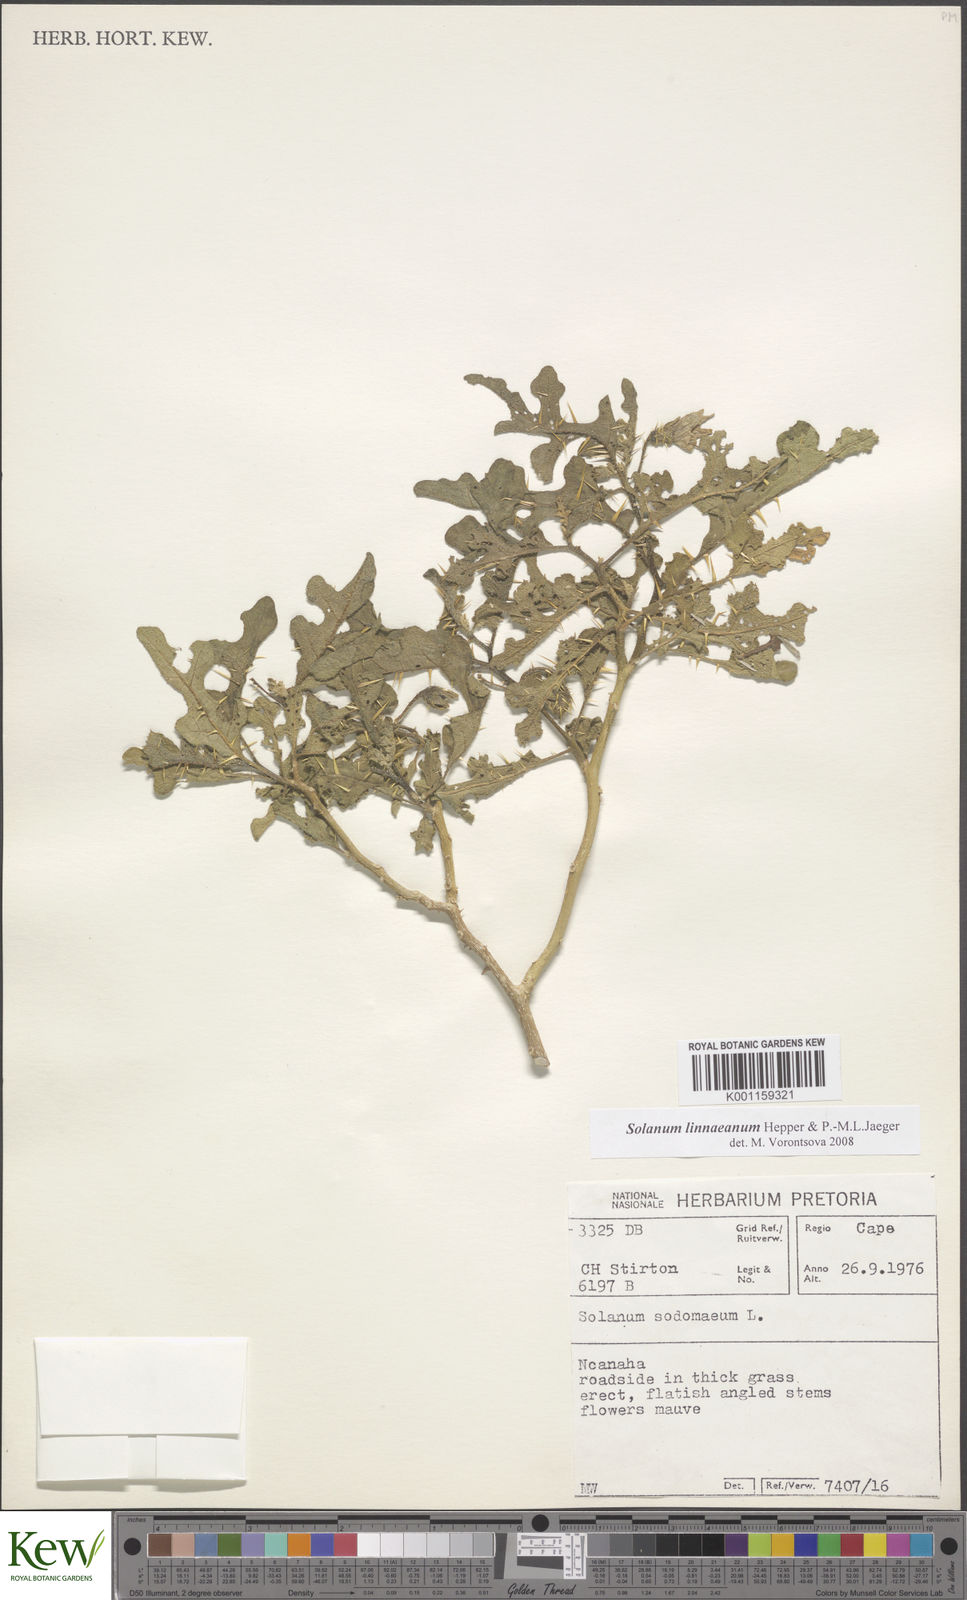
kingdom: Plantae
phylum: Tracheophyta
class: Magnoliopsida
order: Solanales
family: Solanaceae
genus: Solanum
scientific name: Solanum linnaeanum
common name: Nightshade
